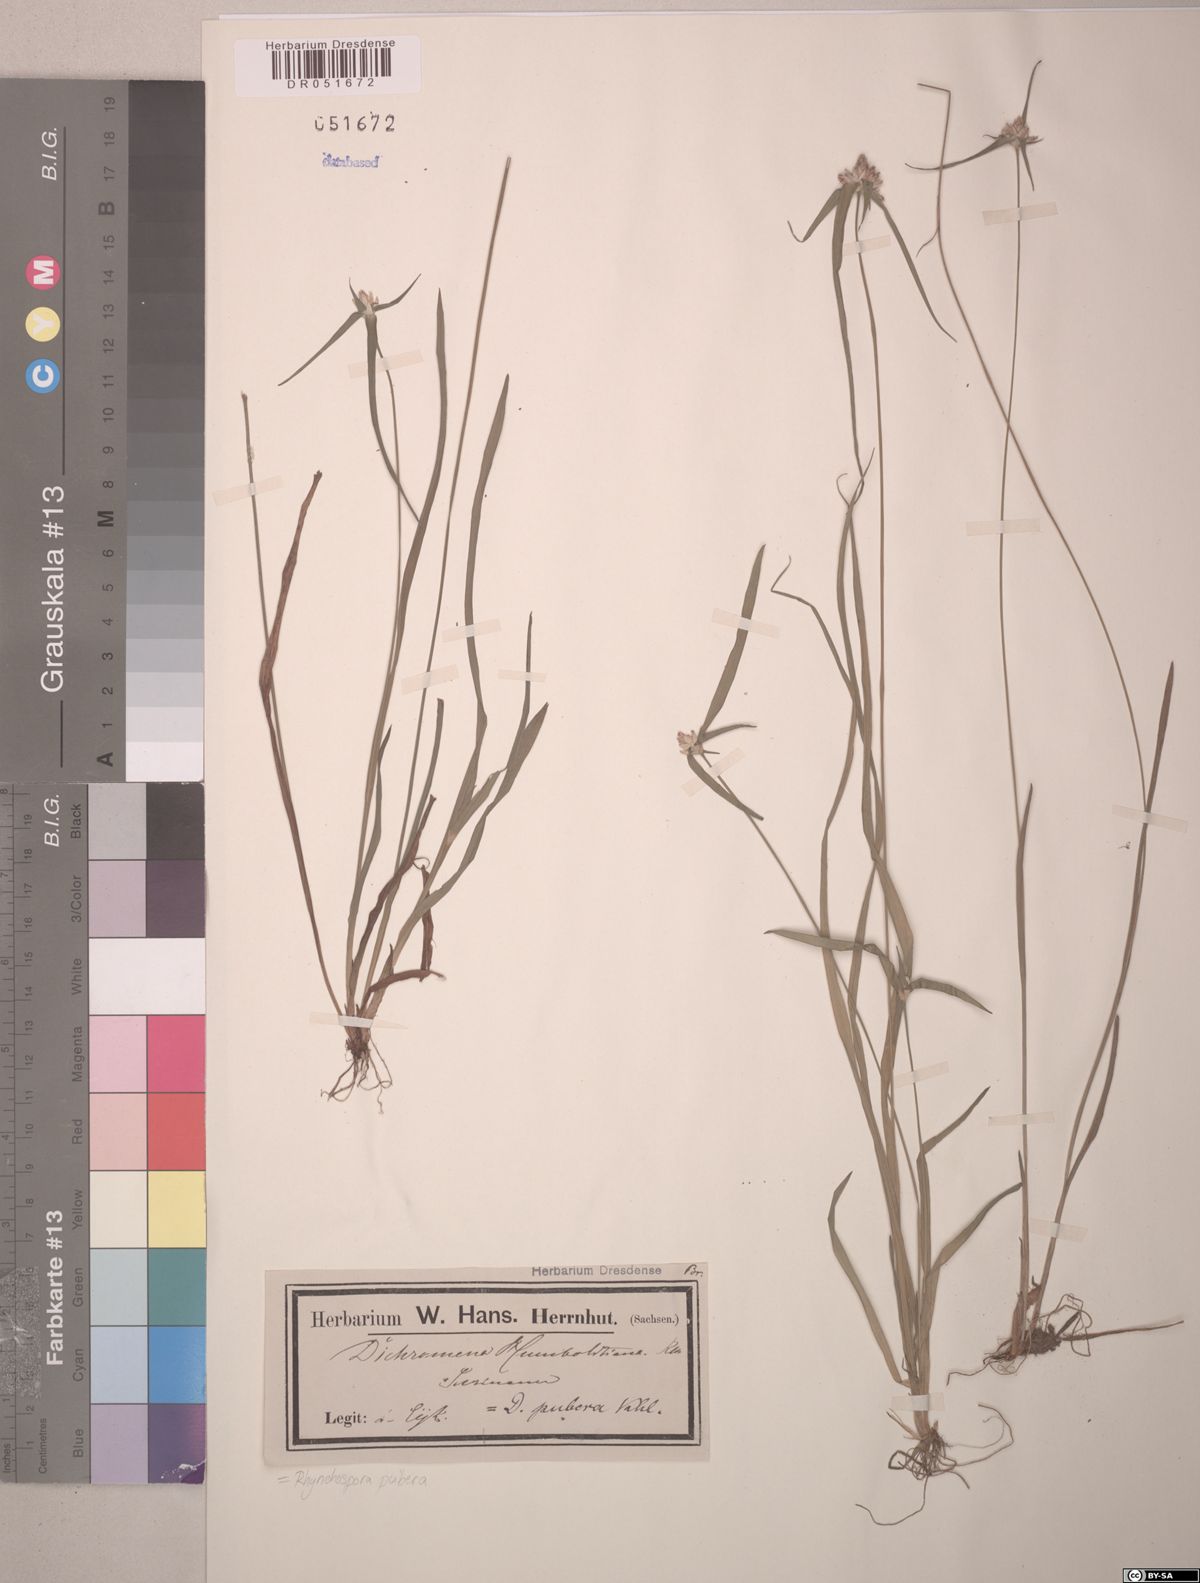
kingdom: Plantae
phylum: Tracheophyta
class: Liliopsida
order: Poales
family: Cyperaceae
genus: Rhynchospora
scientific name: Rhynchospora pubera
